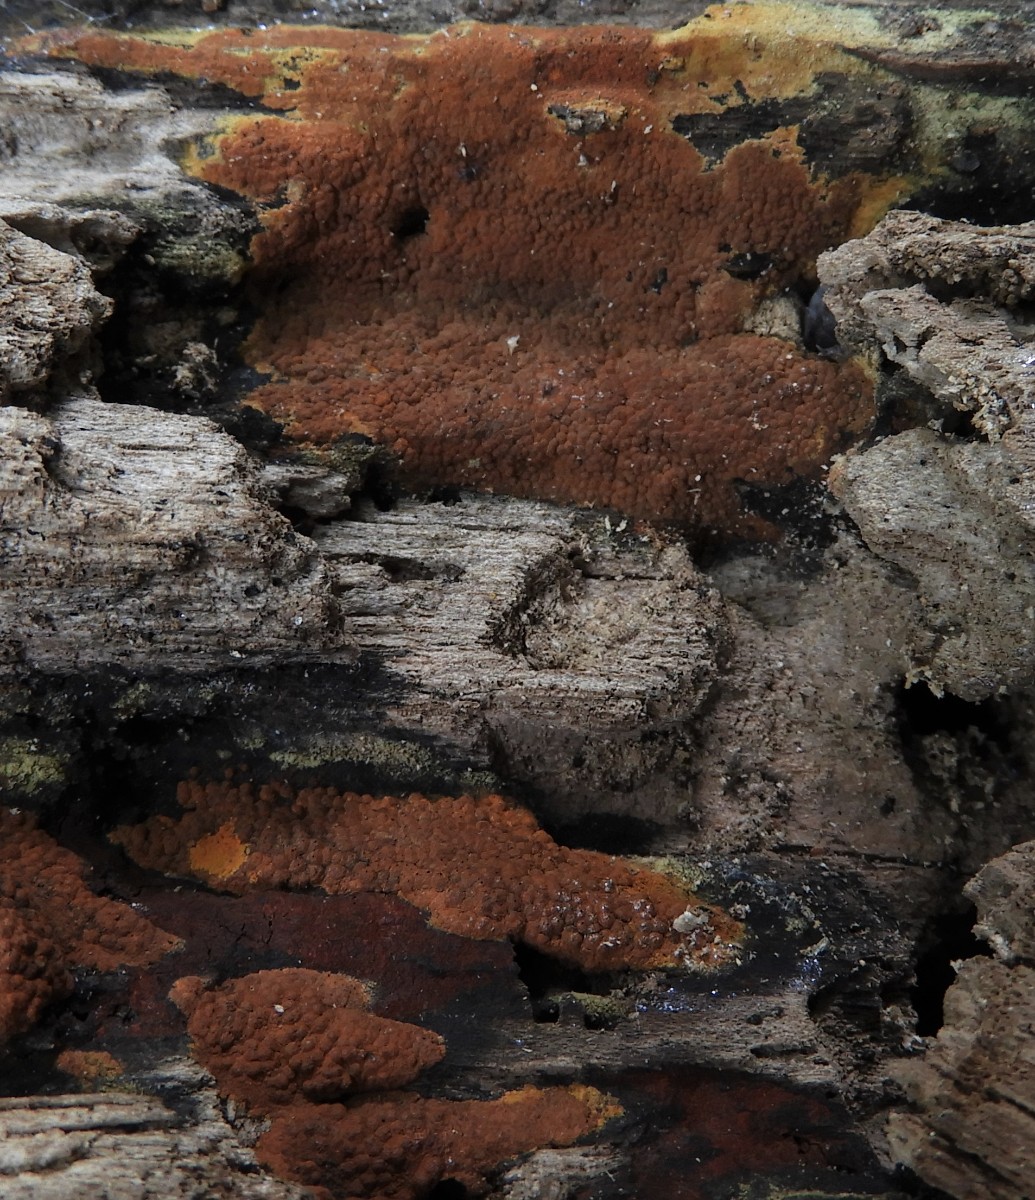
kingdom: Fungi
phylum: Ascomycota
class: Sordariomycetes
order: Xylariales
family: Hypoxylaceae
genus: Hypoxylon
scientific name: Hypoxylon rubiginosum
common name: rustfarvet kulbær
